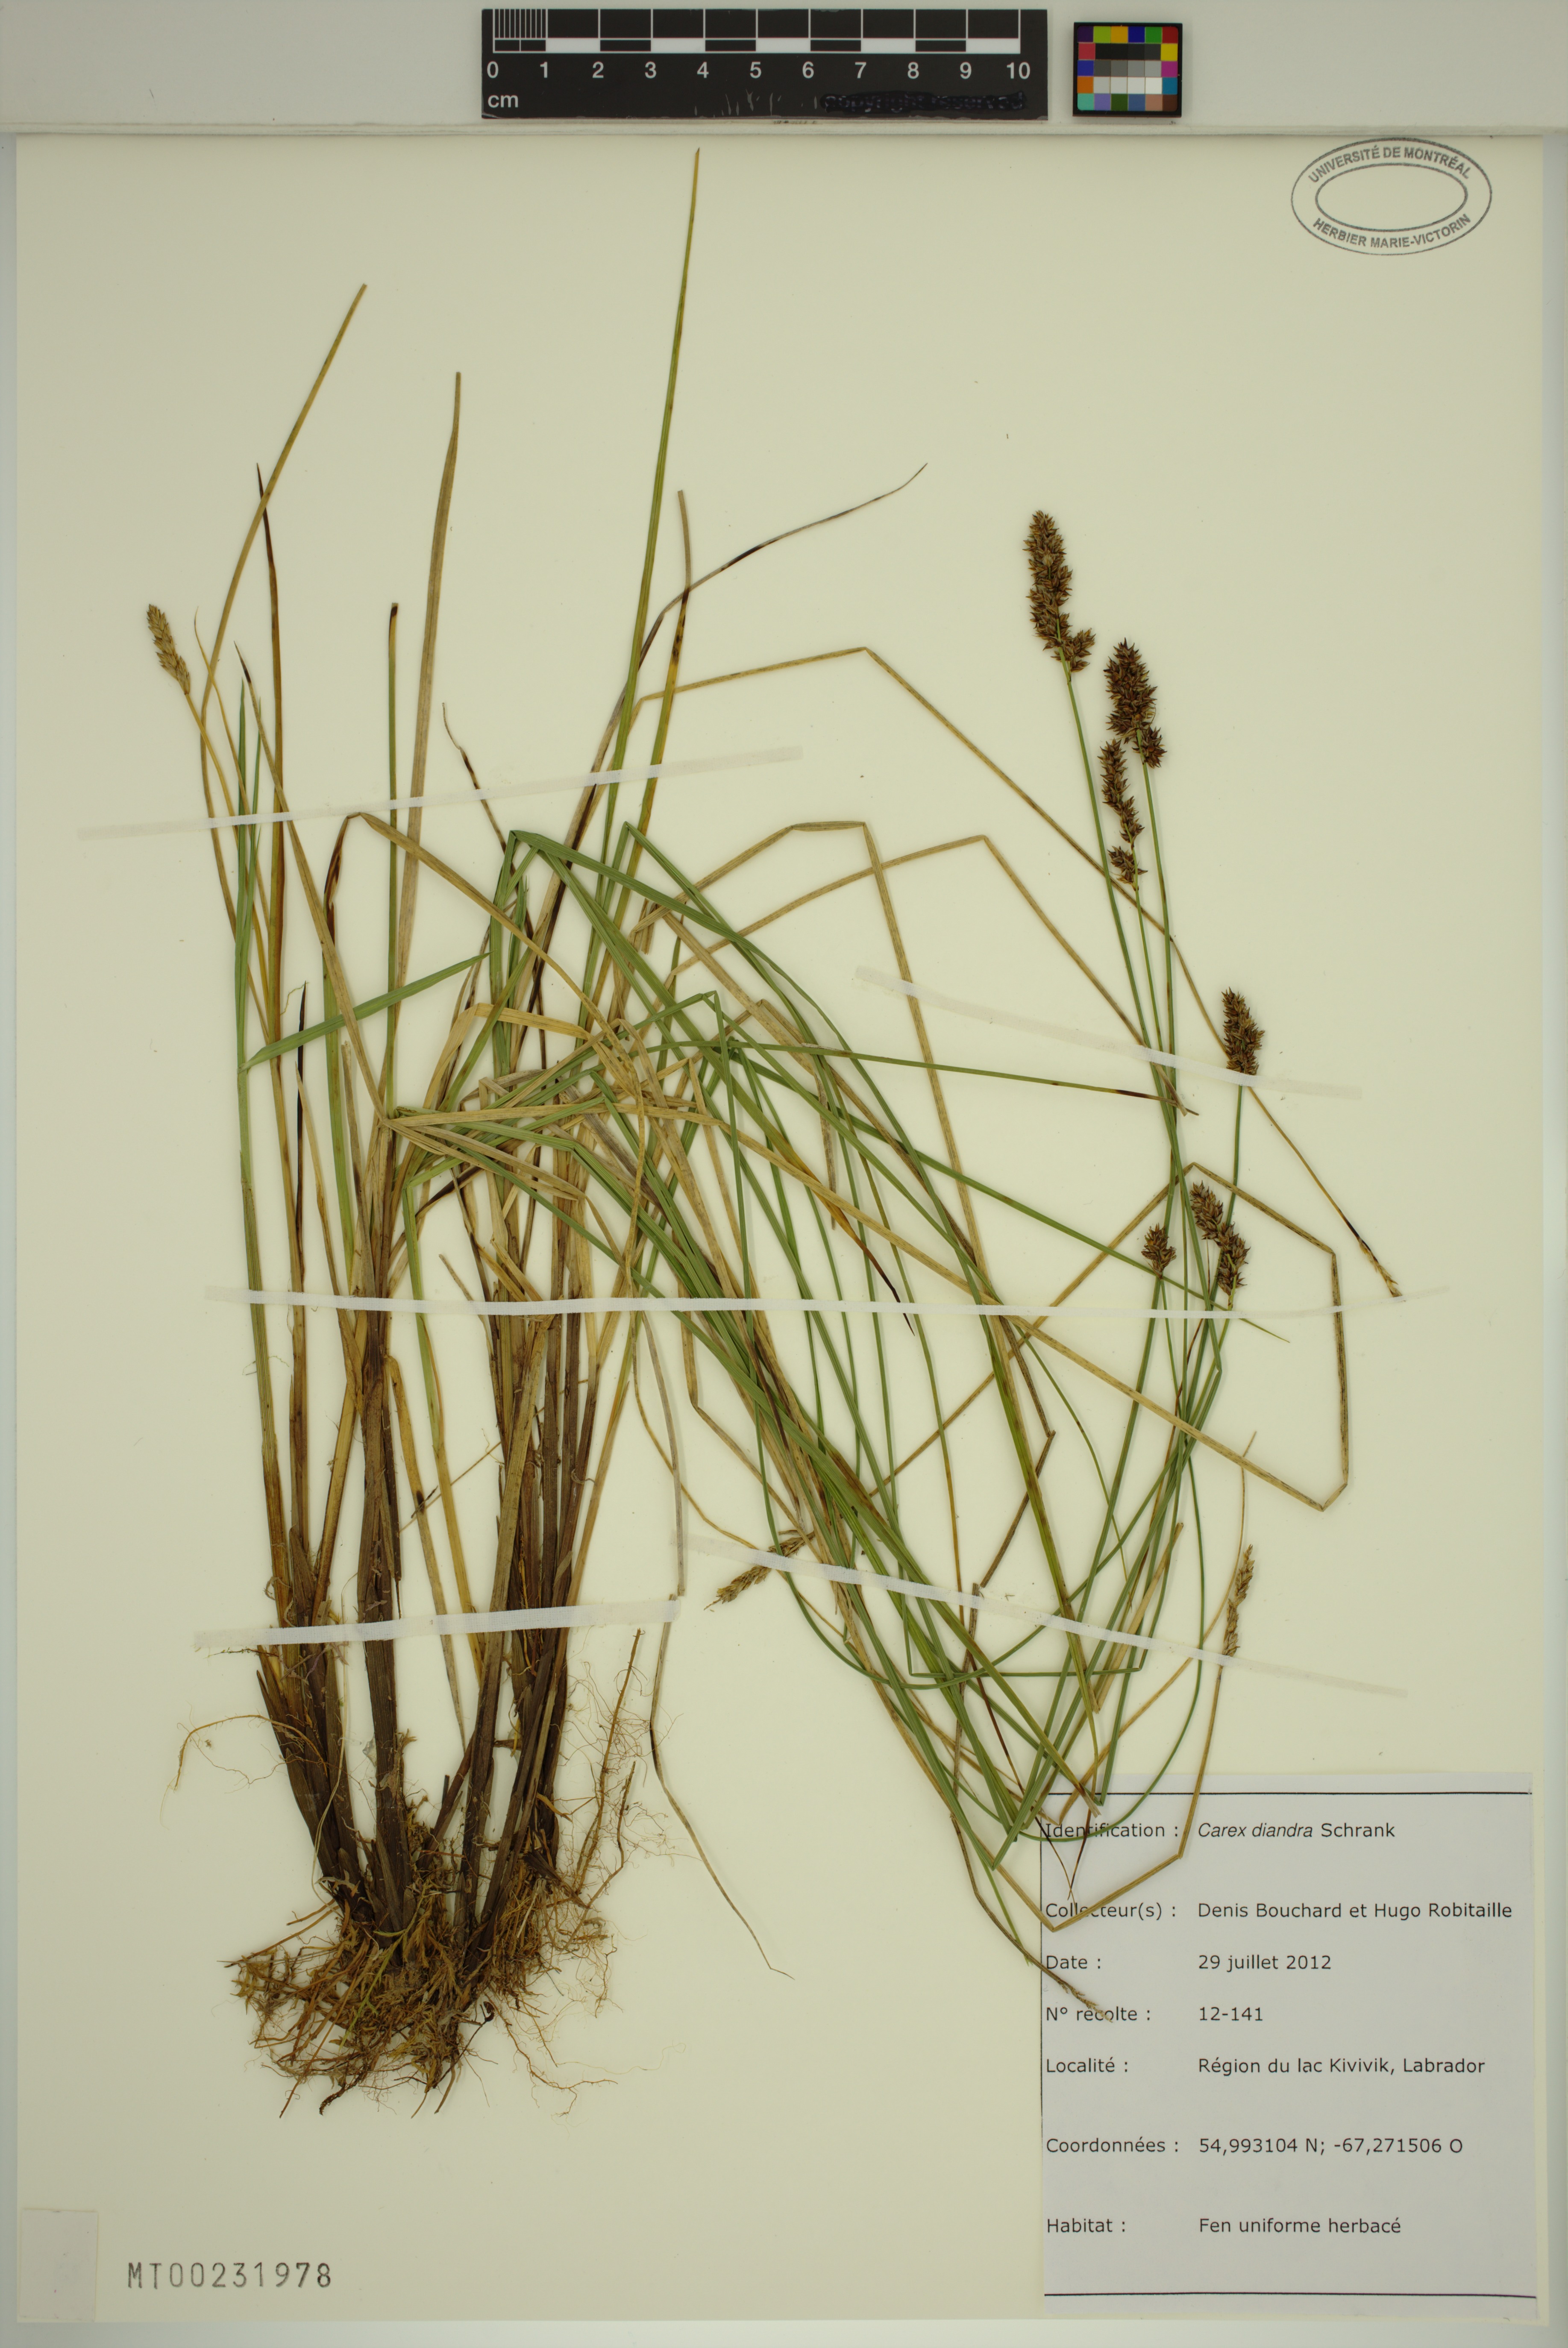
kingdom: Plantae
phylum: Tracheophyta
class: Liliopsida
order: Poales
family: Cyperaceae
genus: Carex
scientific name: Carex diandra
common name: Lesser tussock-sedge
